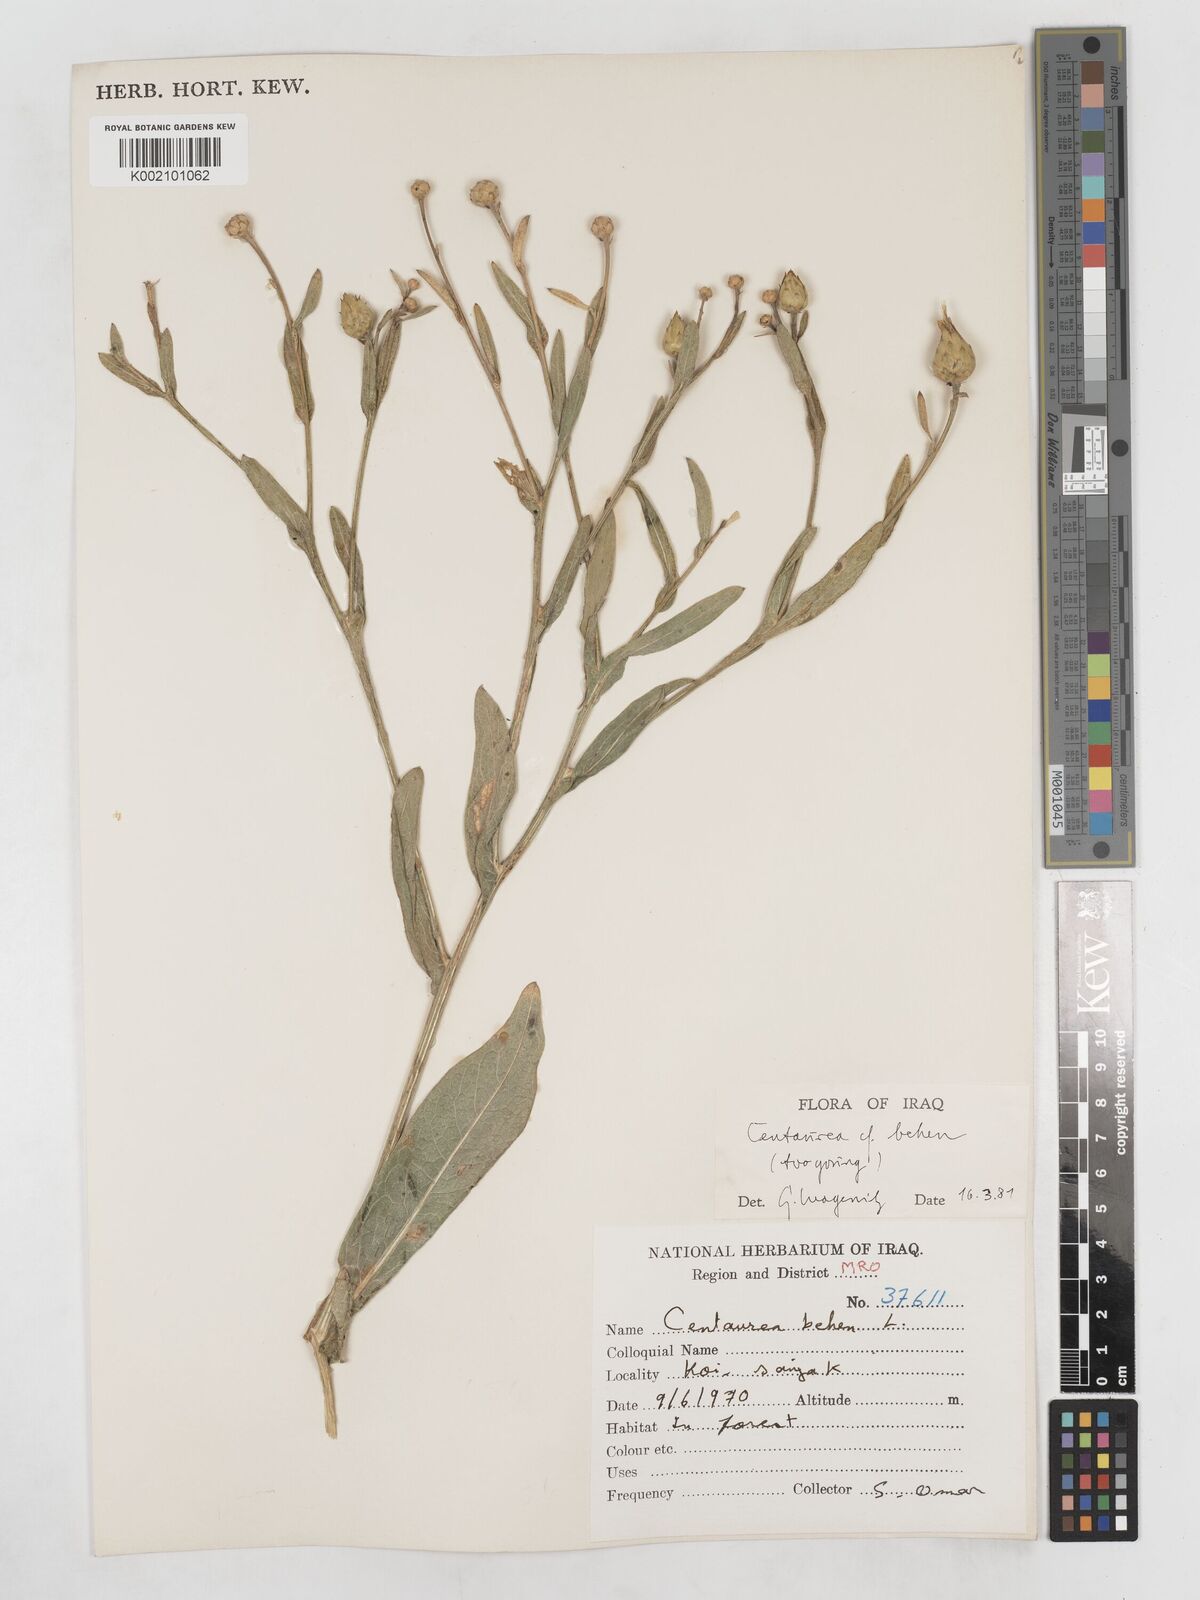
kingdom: Plantae
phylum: Tracheophyta
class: Magnoliopsida
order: Asterales
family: Asteraceae
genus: Centaurea
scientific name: Centaurea behen
